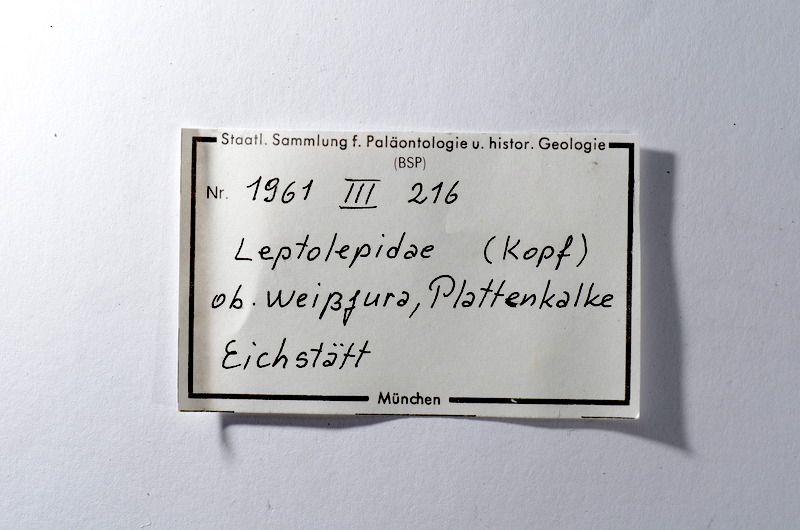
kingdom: Animalia
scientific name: Animalia
